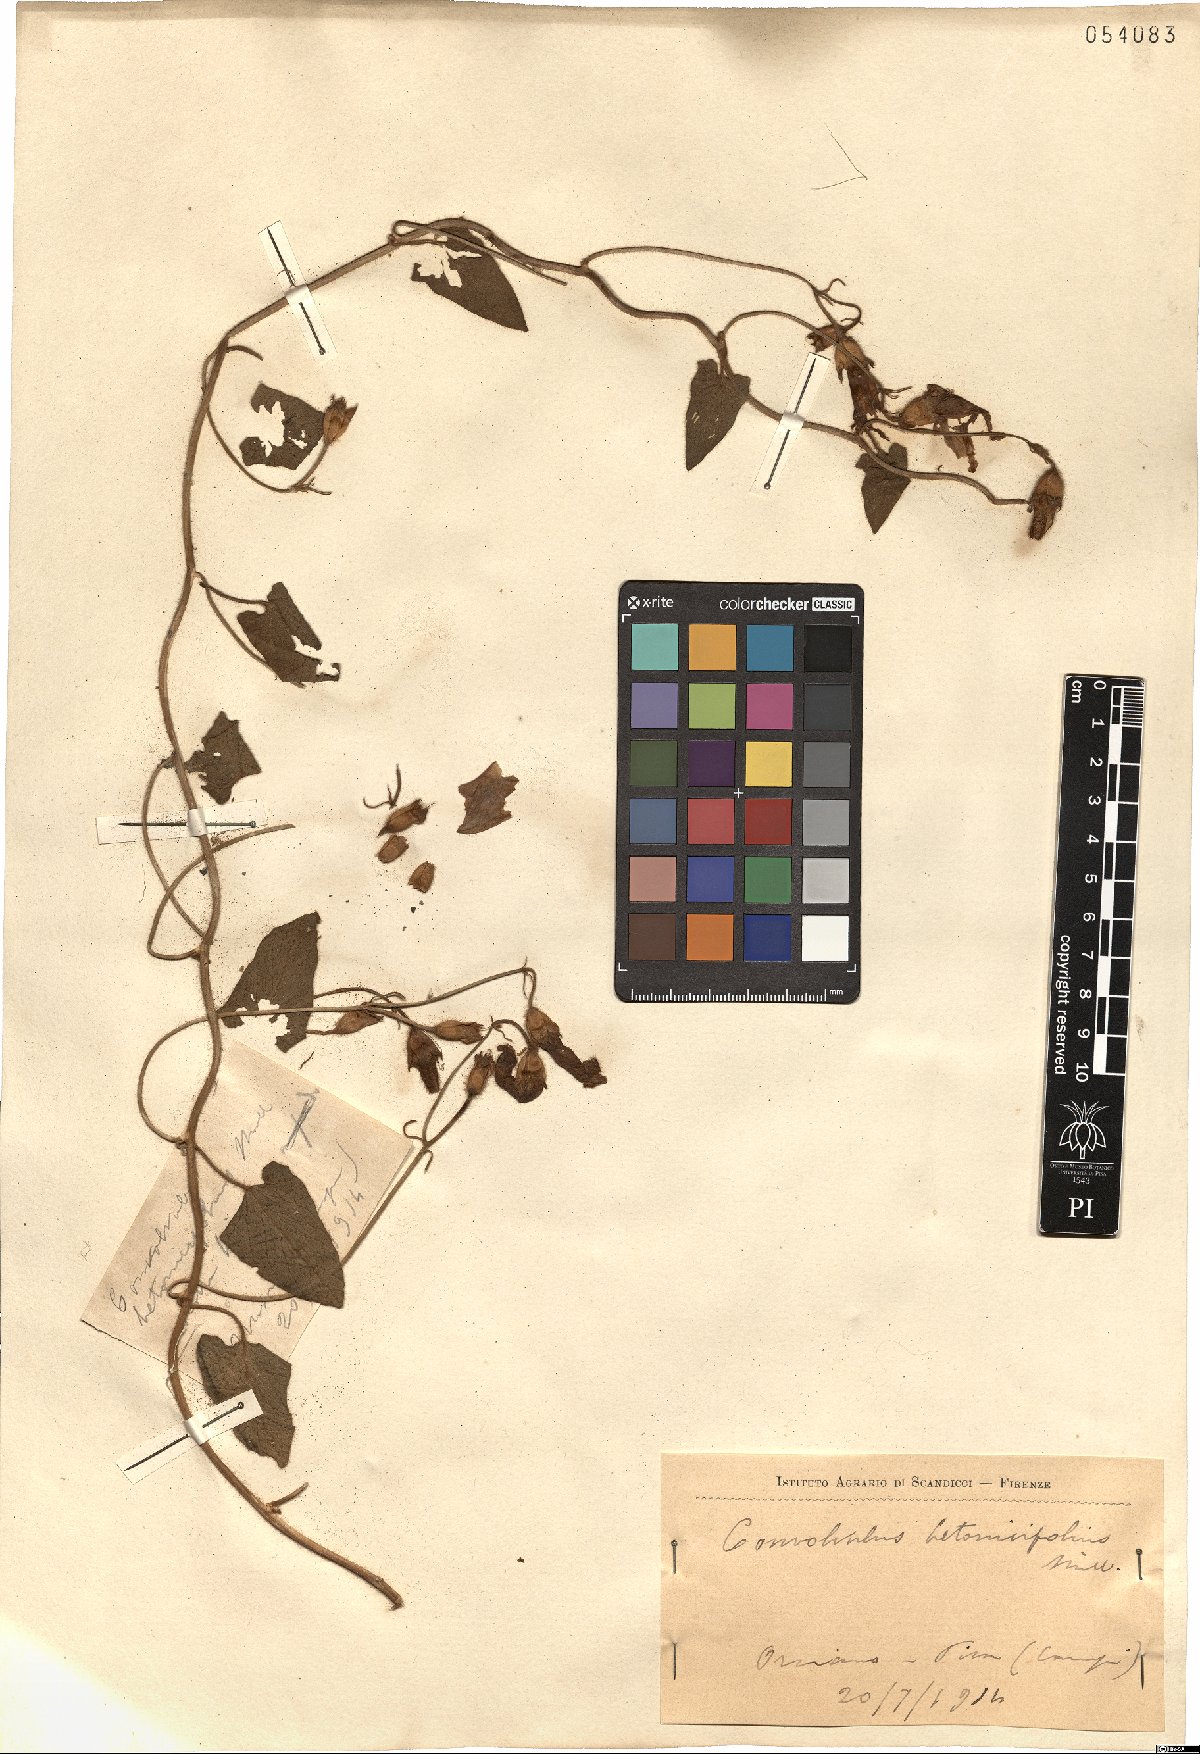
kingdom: Plantae
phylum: Tracheophyta
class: Magnoliopsida
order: Solanales
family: Convolvulaceae
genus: Convolvulus
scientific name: Convolvulus betonicifolius
